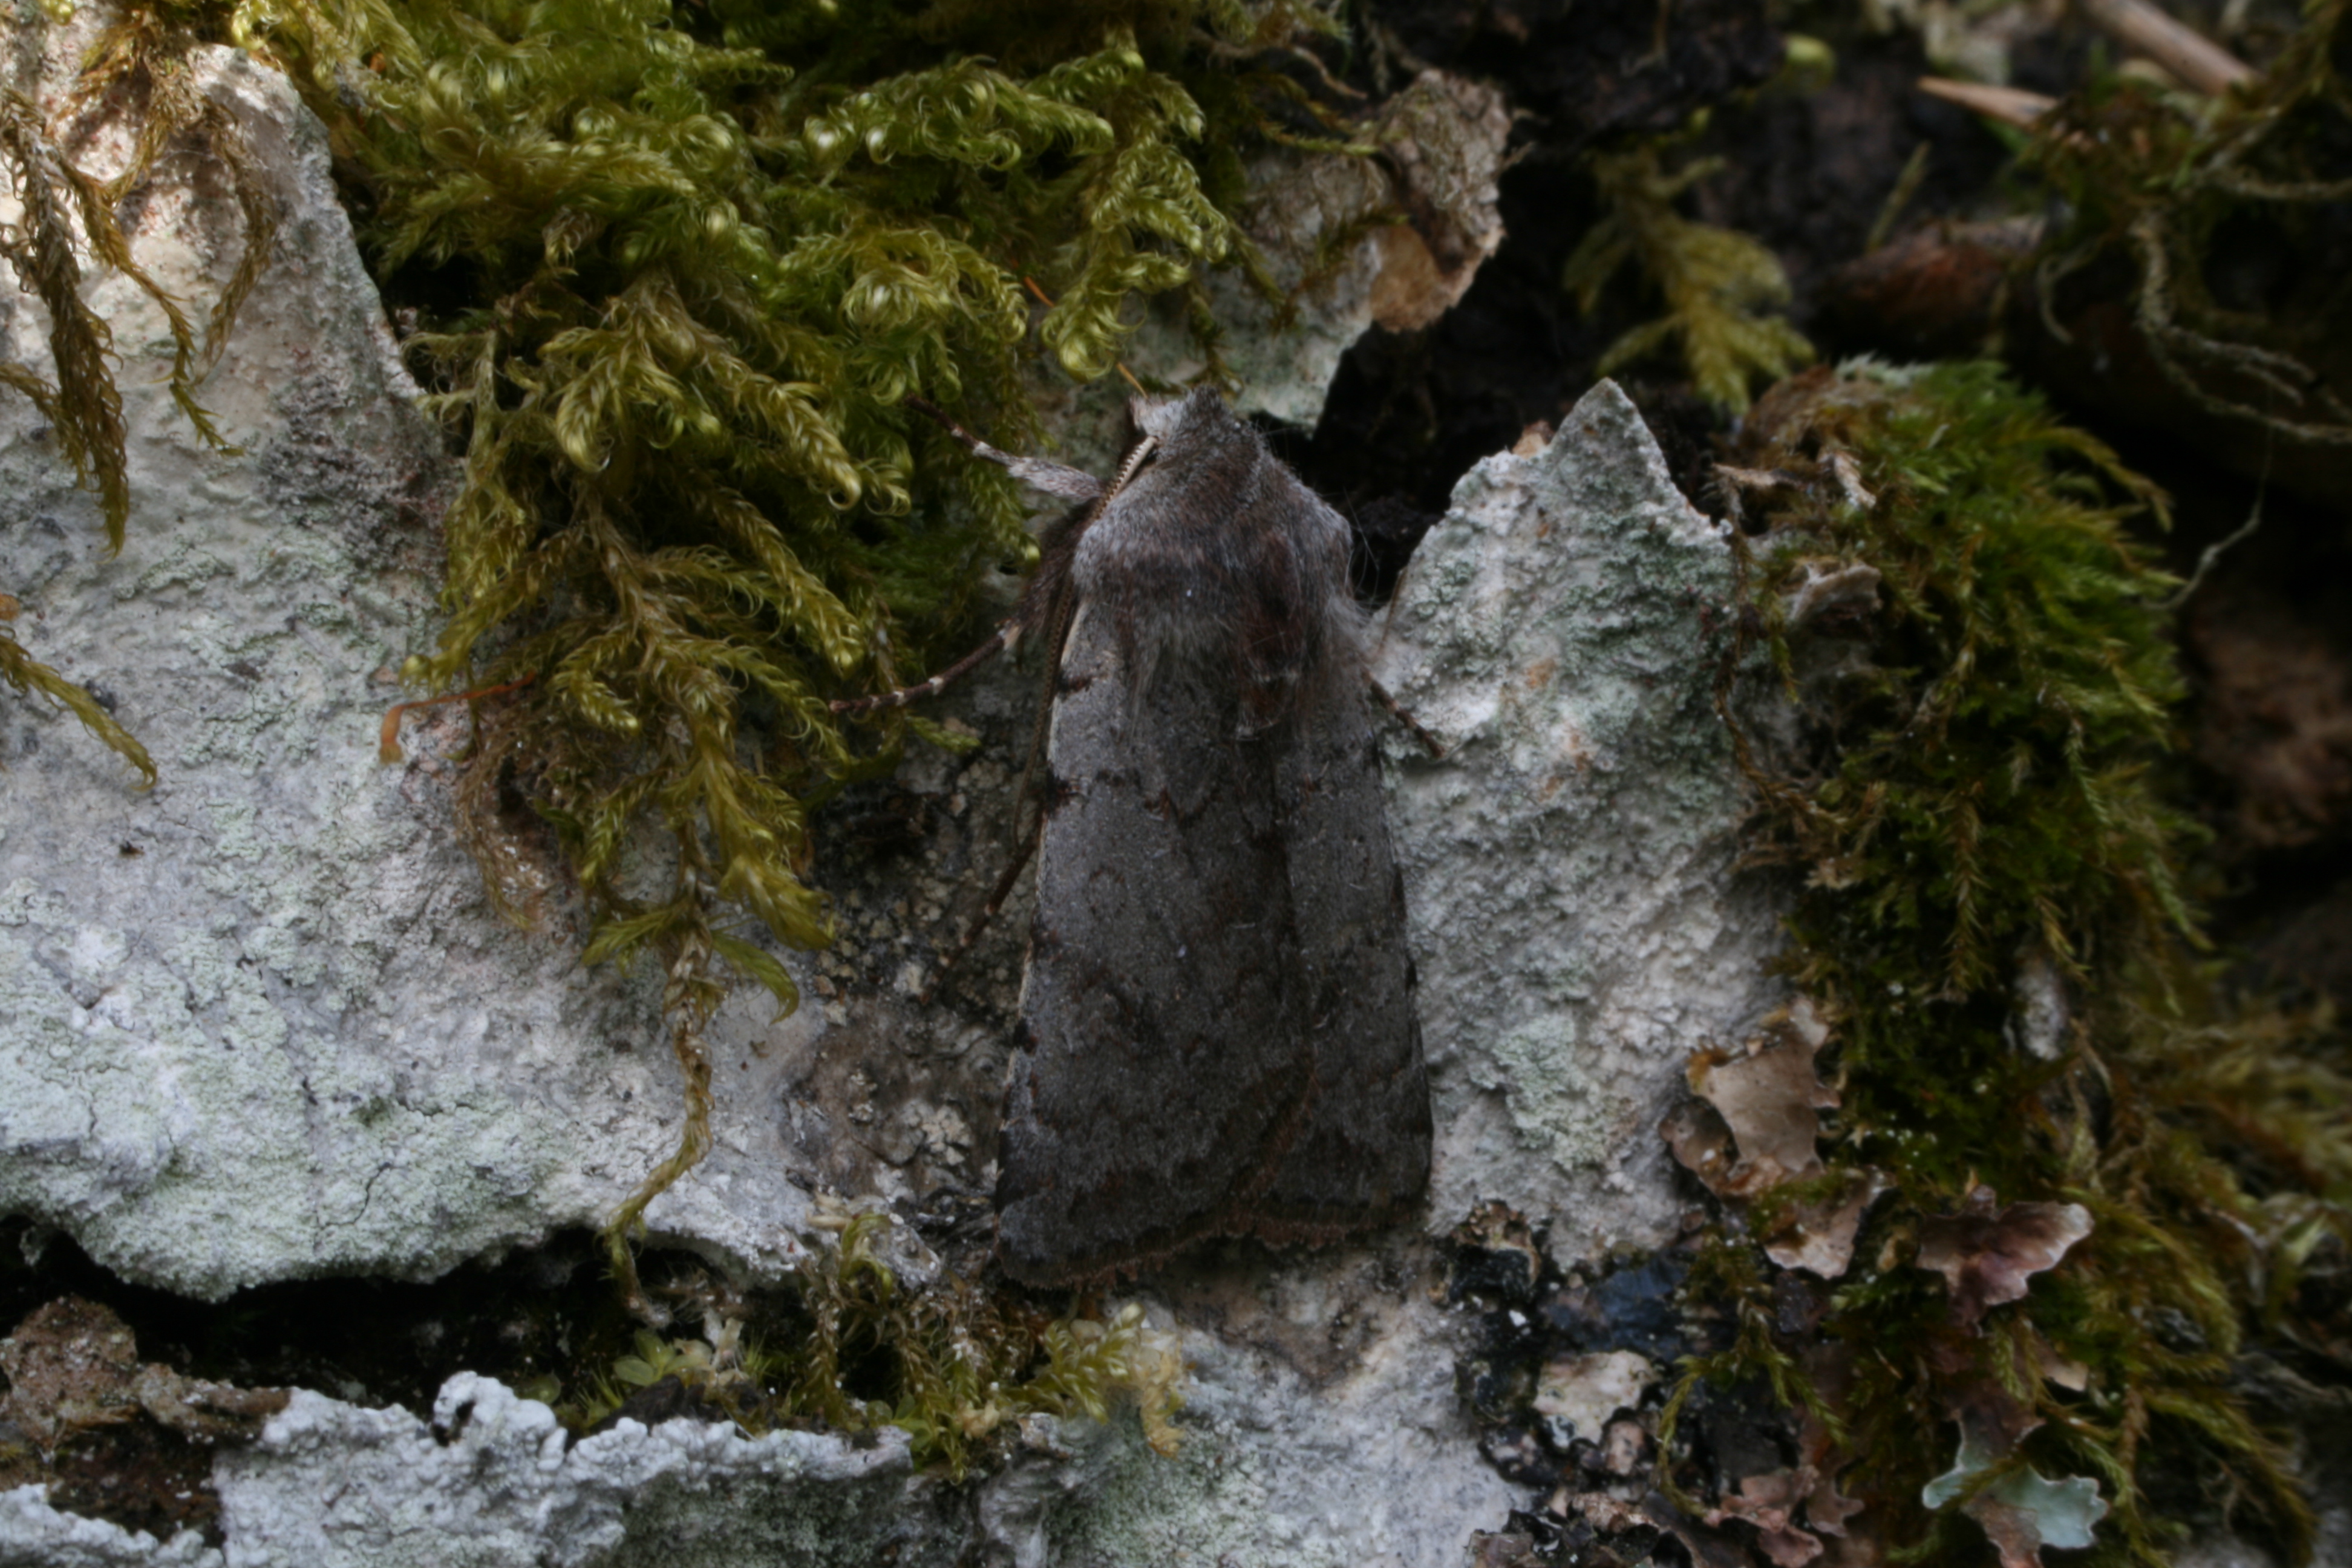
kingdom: Animalia
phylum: Arthropoda
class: Insecta
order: Lepidoptera
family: Noctuidae
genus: Cerastis
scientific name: Cerastis rubricosa
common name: Red chestnut
